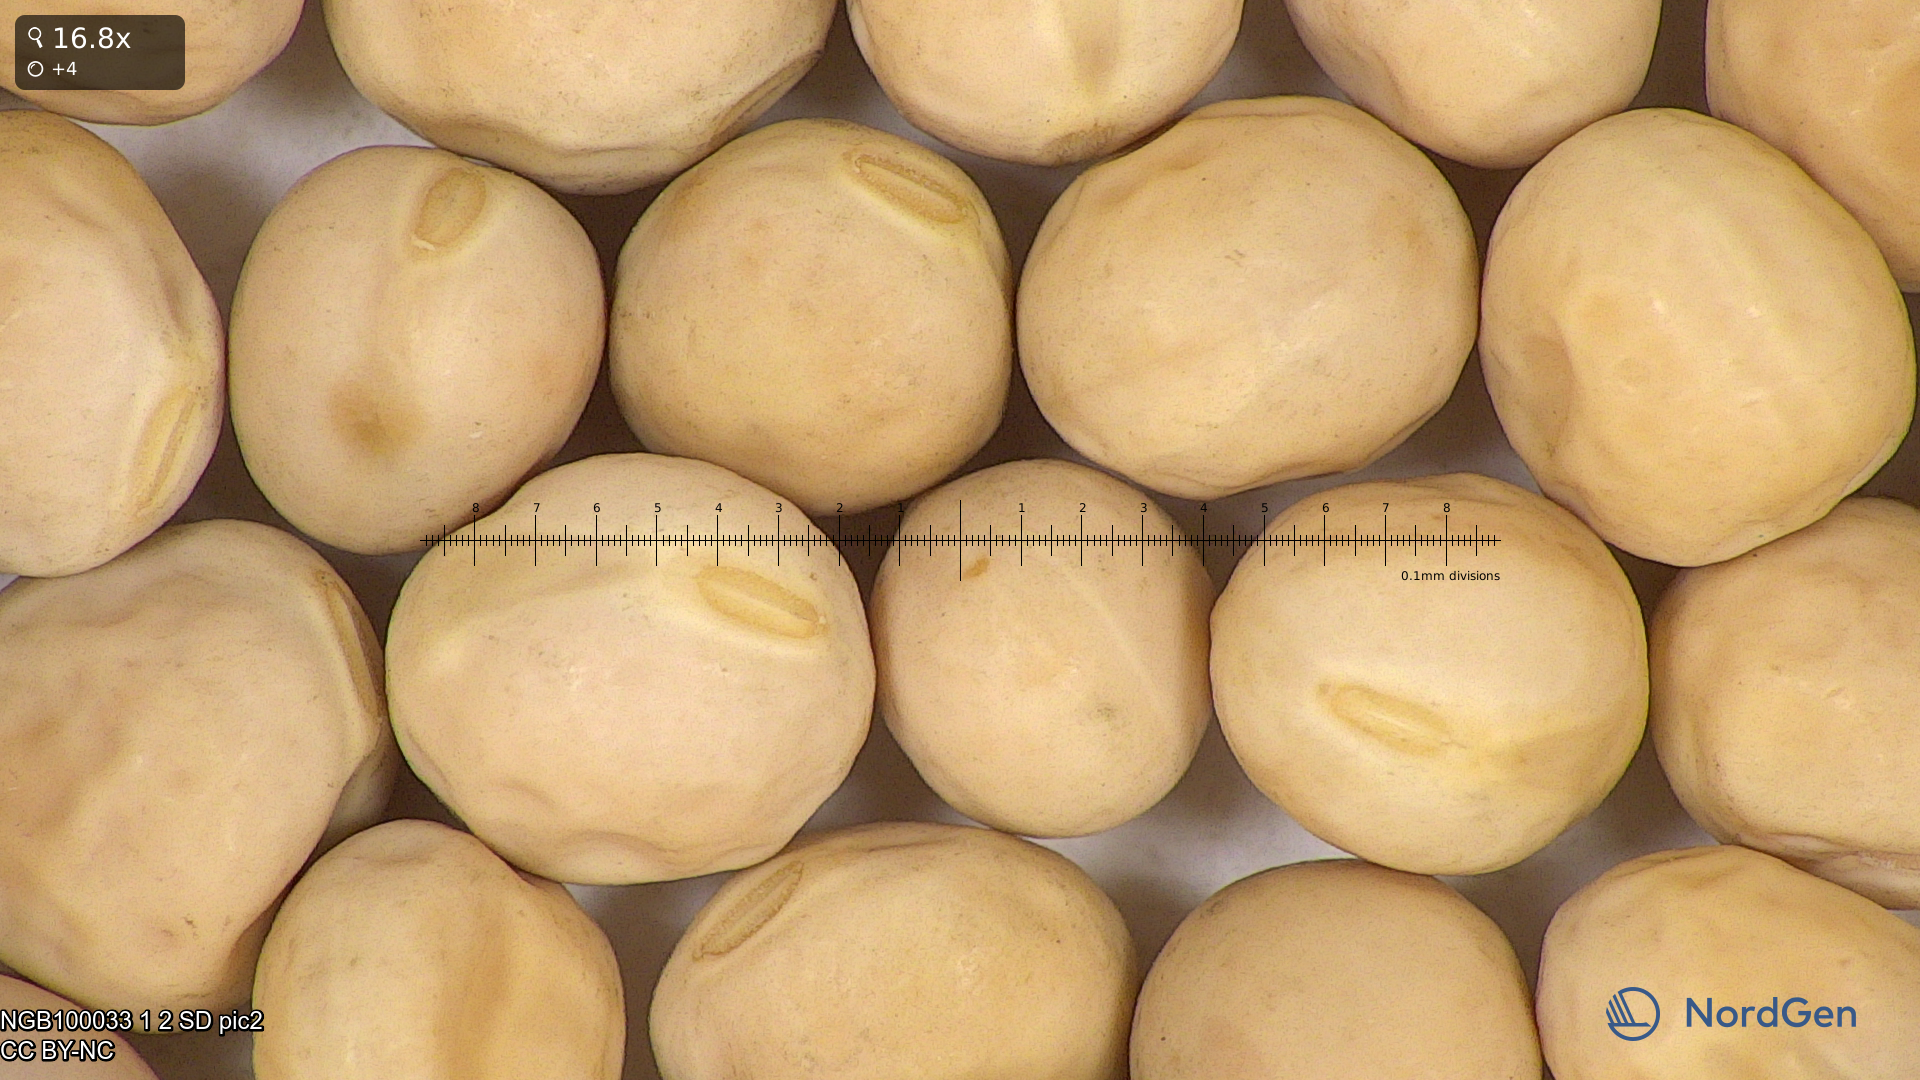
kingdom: Plantae
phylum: Tracheophyta
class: Magnoliopsida
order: Fabales
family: Fabaceae
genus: Lathyrus
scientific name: Lathyrus oleraceus
